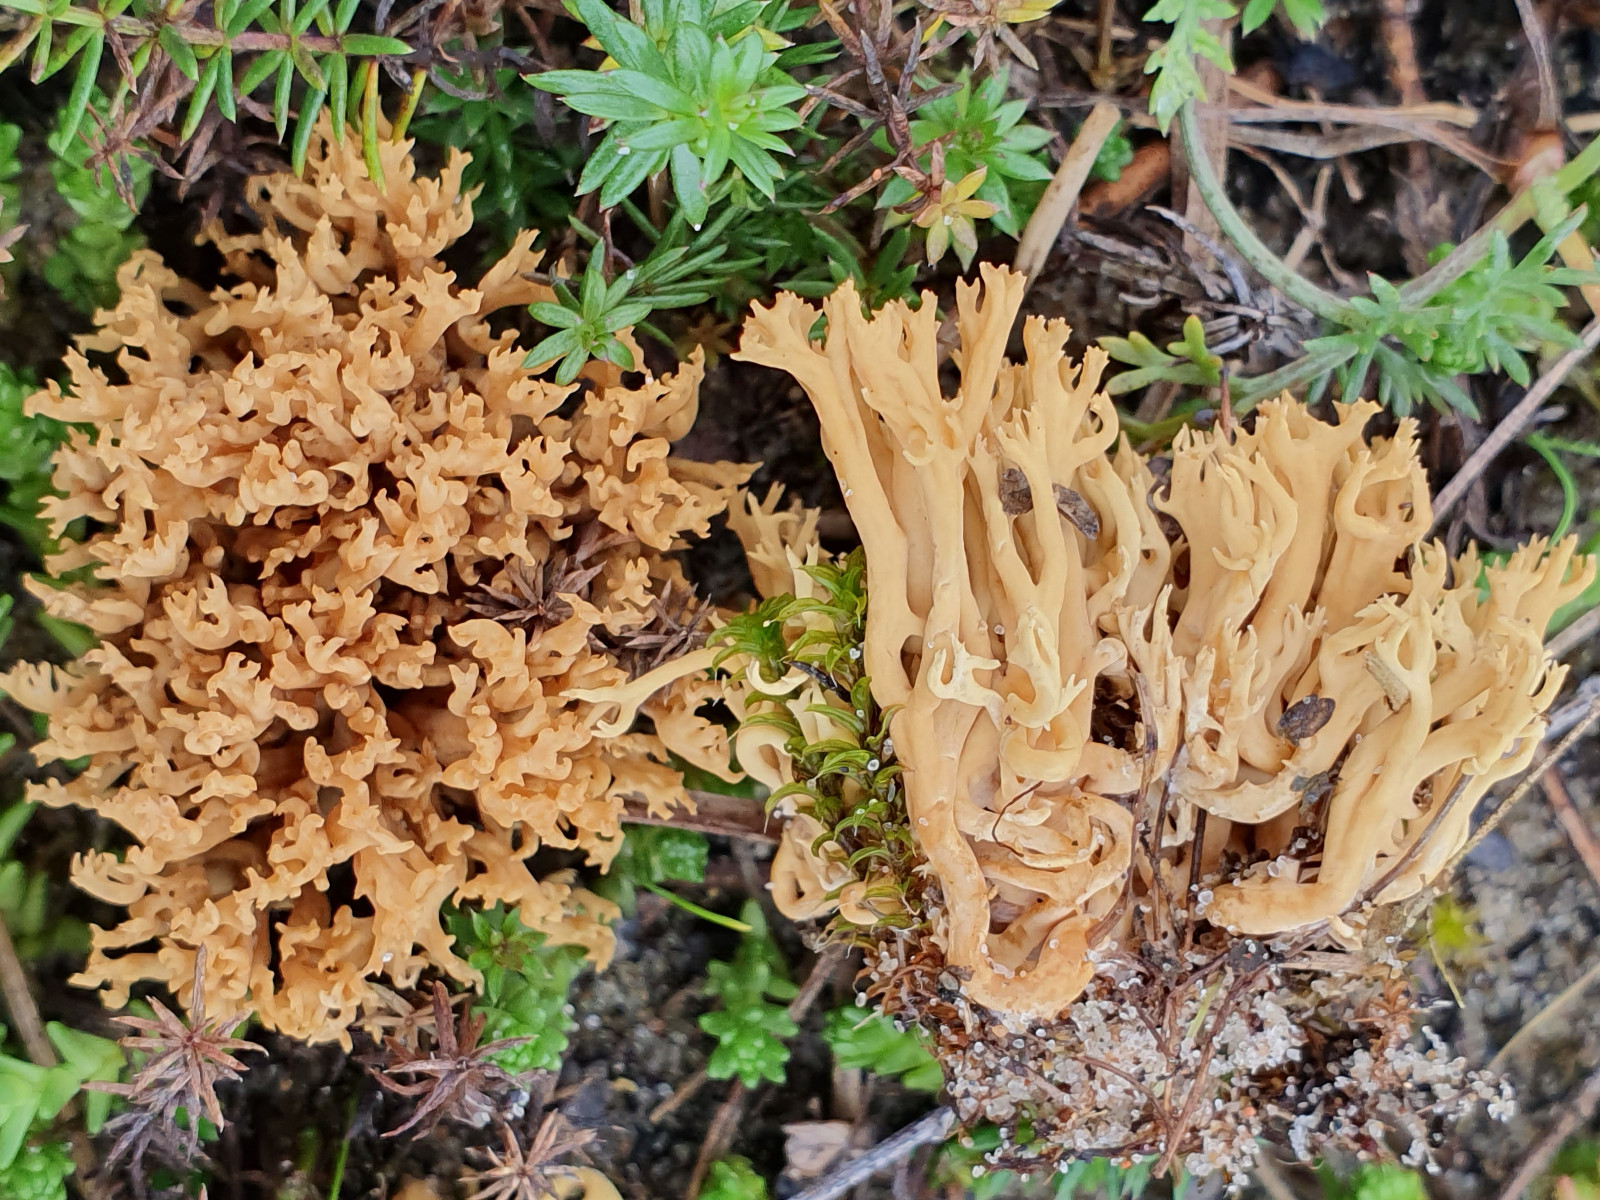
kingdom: Fungi
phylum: Basidiomycota
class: Agaricomycetes
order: Gomphales
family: Gomphaceae
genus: Phaeoclavulina
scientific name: Phaeoclavulina flaccida
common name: spinkel koralsvamp
